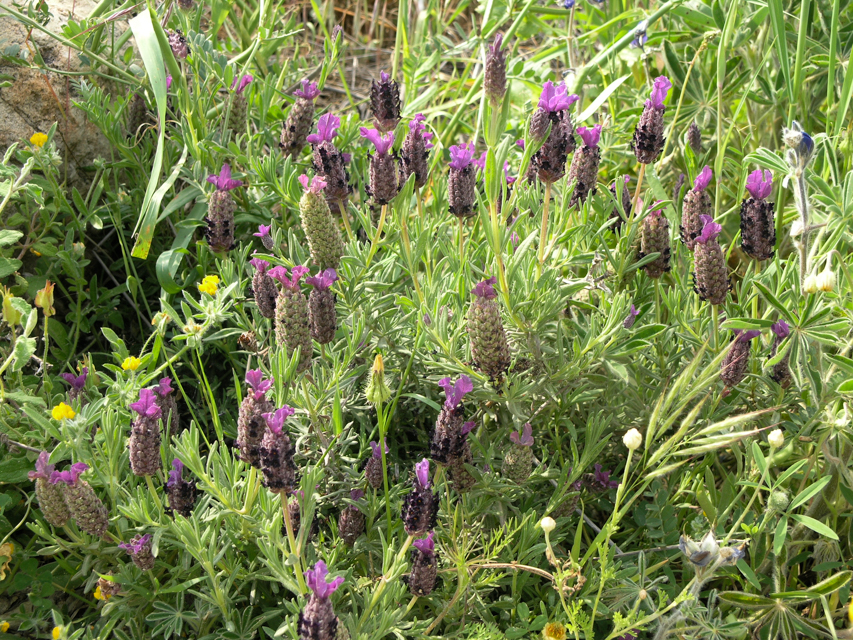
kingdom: Plantae
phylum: Tracheophyta
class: Magnoliopsida
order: Lamiales
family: Lamiaceae
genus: Lavandula
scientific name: Lavandula pedunculata
